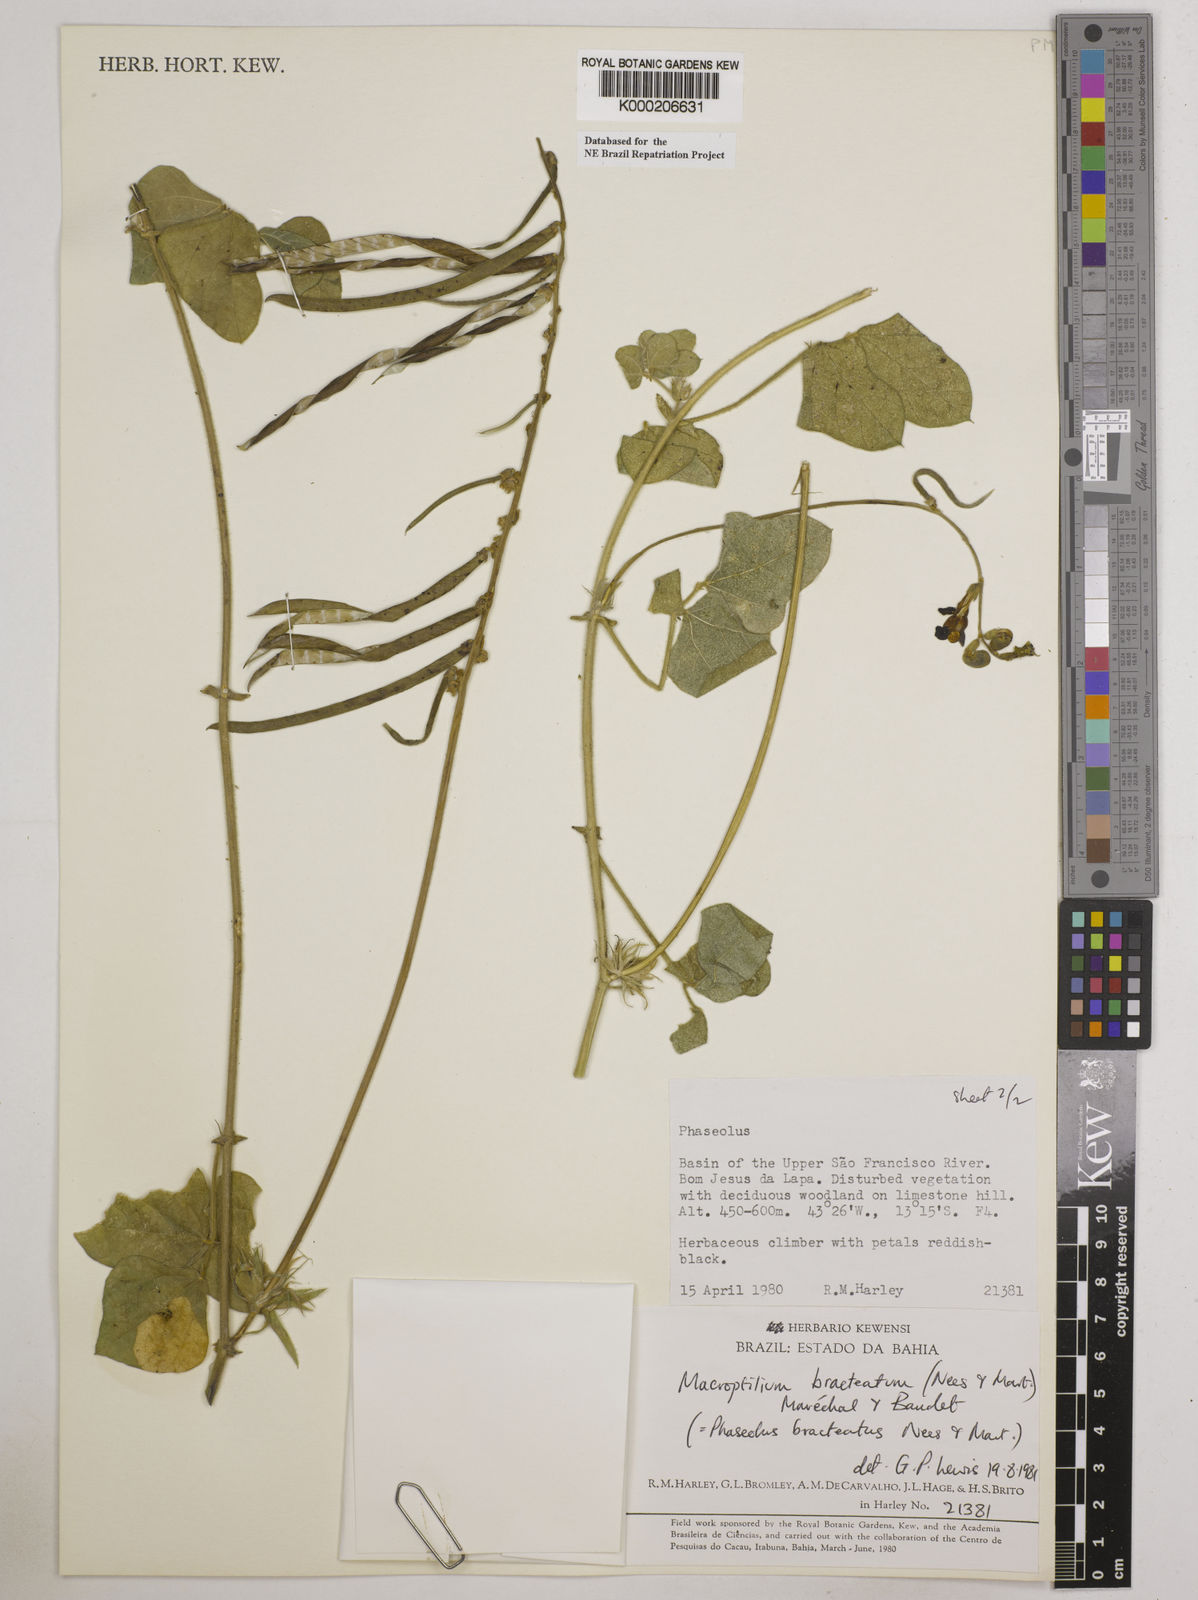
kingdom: Plantae
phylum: Tracheophyta
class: Magnoliopsida
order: Fabales
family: Fabaceae
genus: Macroptilium
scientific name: Macroptilium
